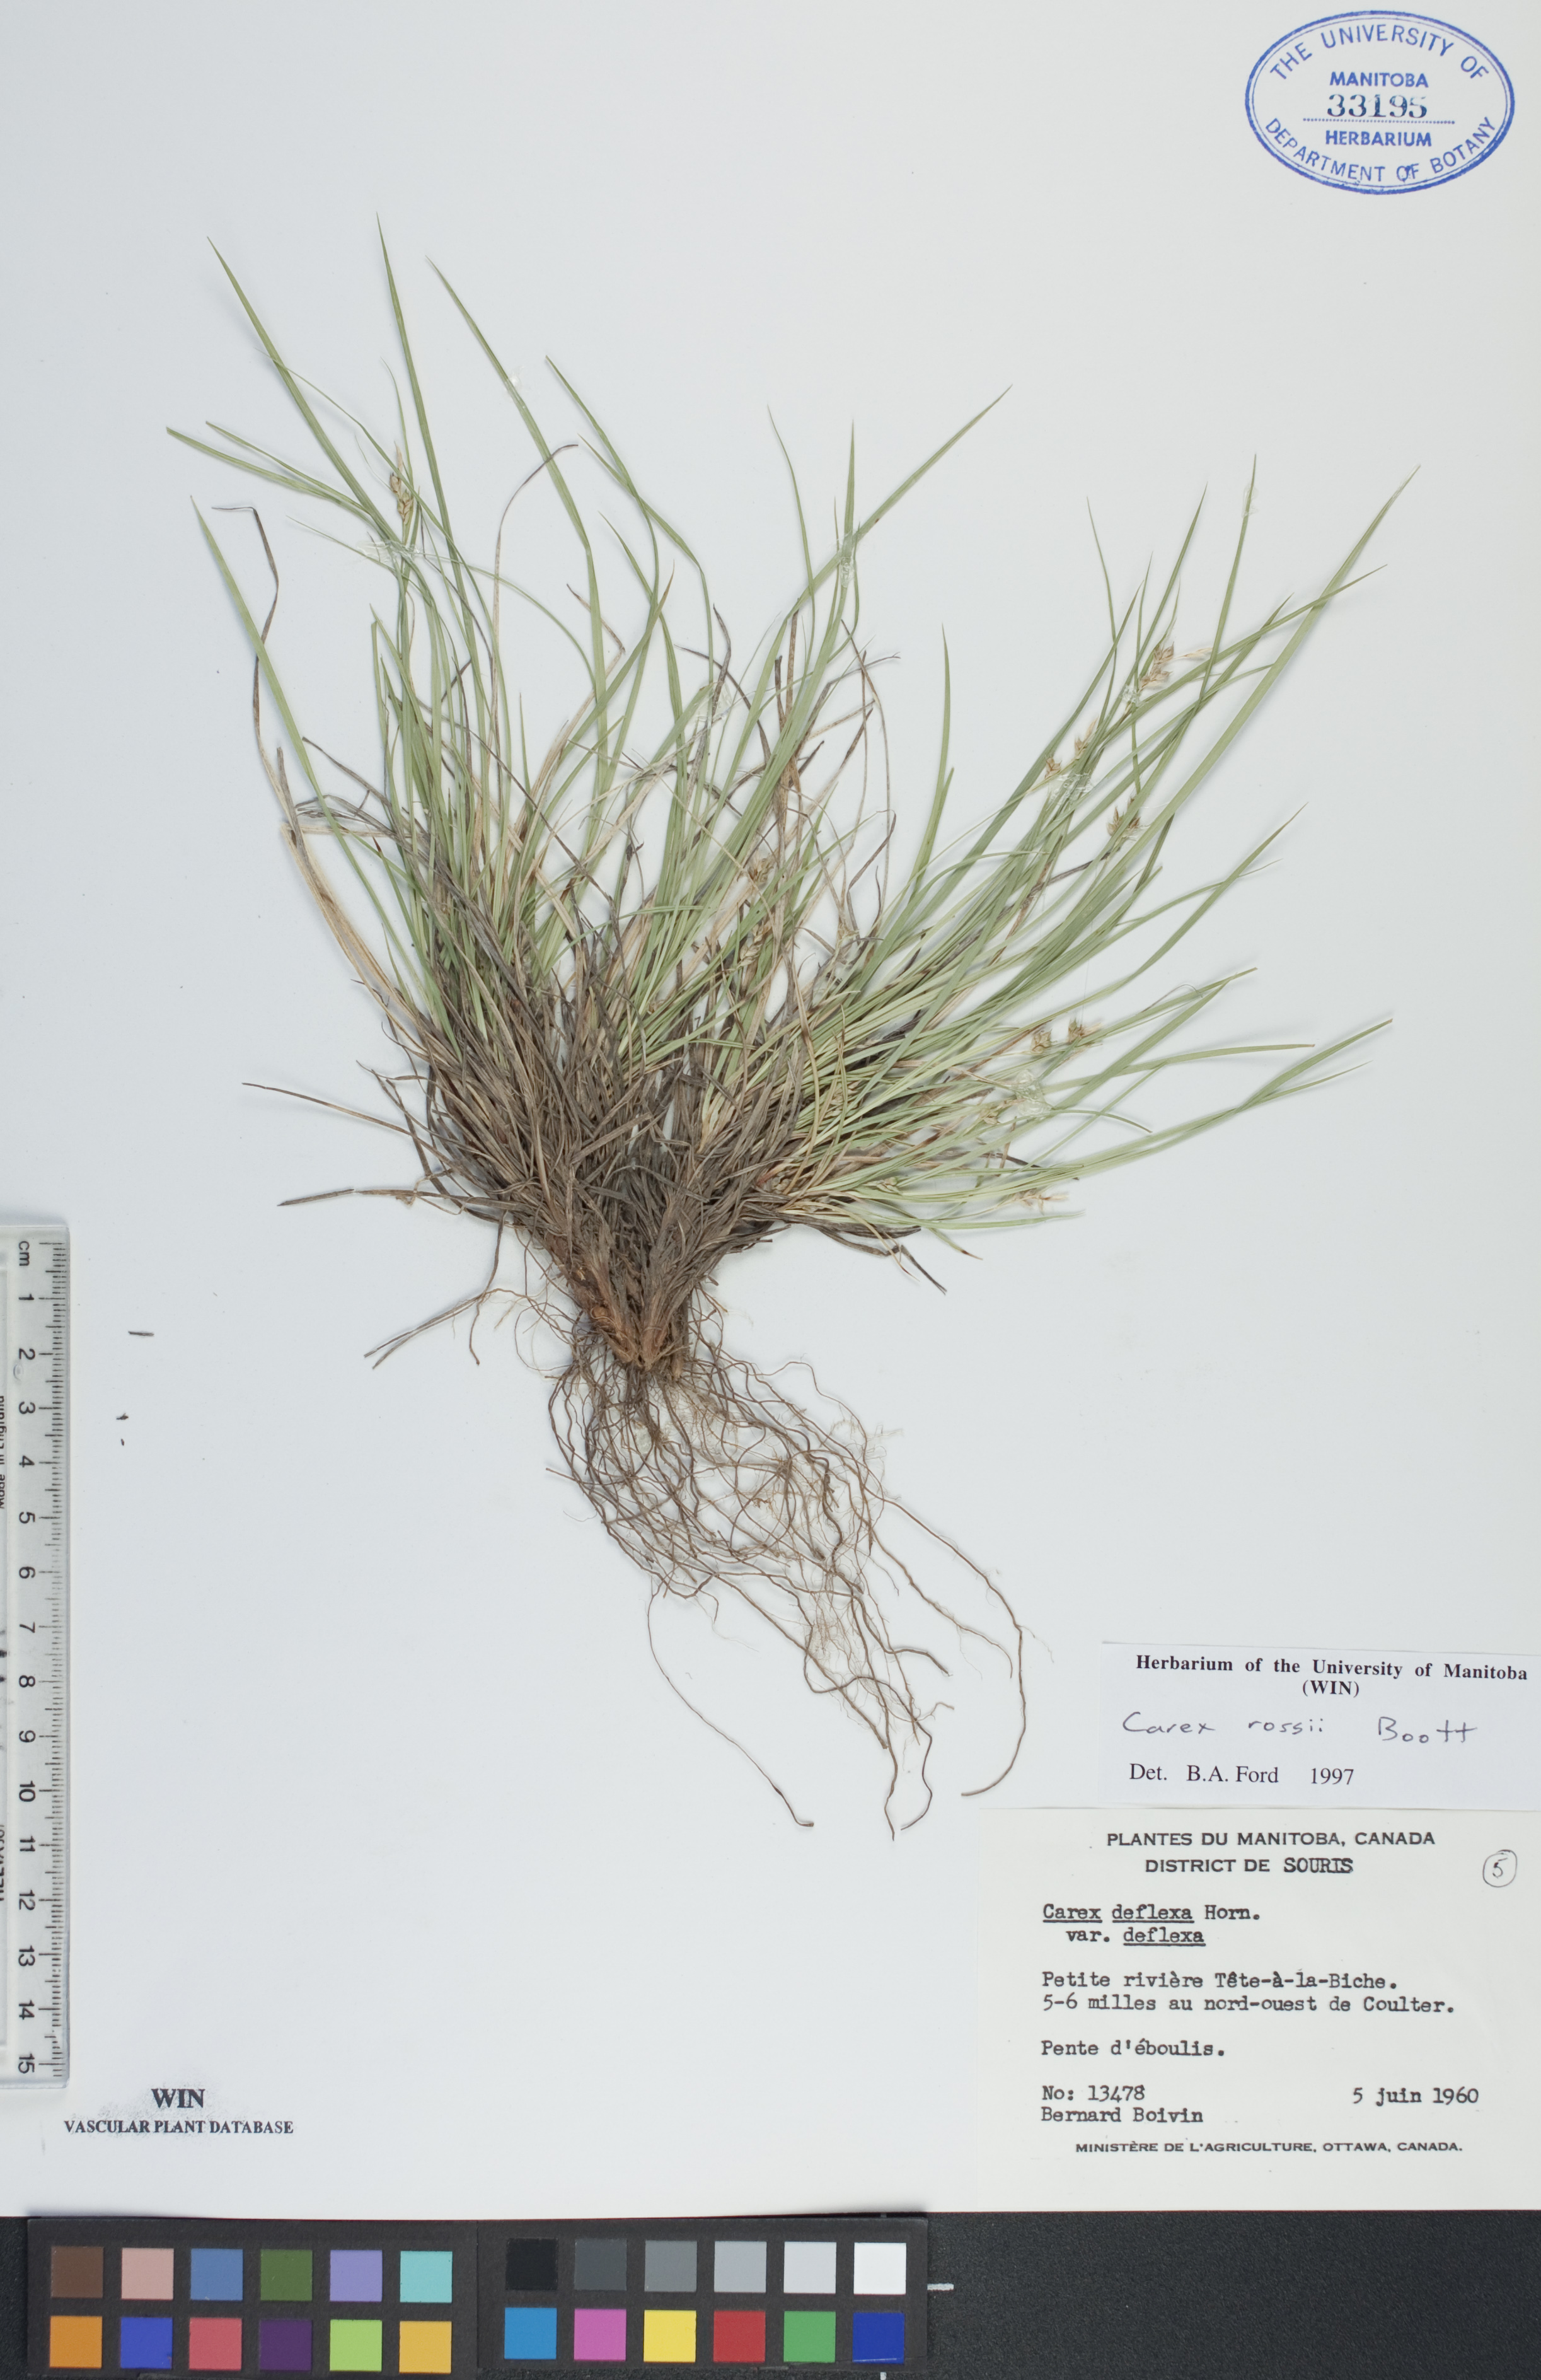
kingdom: Plantae
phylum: Tracheophyta
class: Liliopsida
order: Poales
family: Cyperaceae
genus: Carex
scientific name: Carex rossii
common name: Ross' sedge
